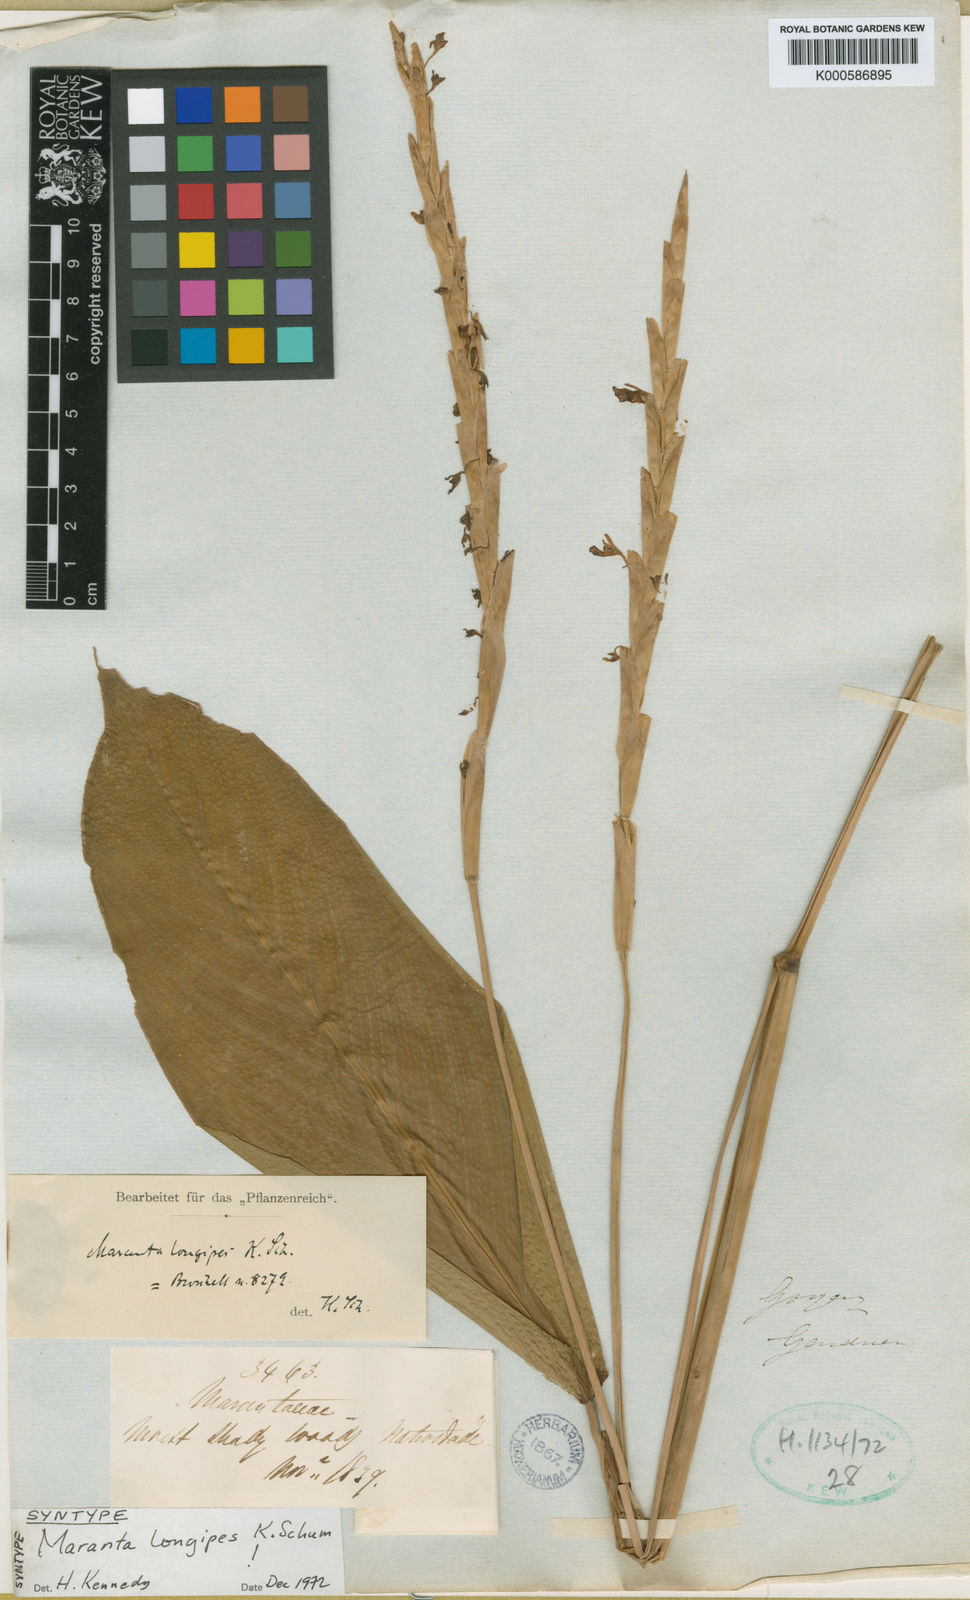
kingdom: Plantae
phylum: Tracheophyta
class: Liliopsida
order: Zingiberales
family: Marantaceae
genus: Maranta
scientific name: Maranta phrynioides
